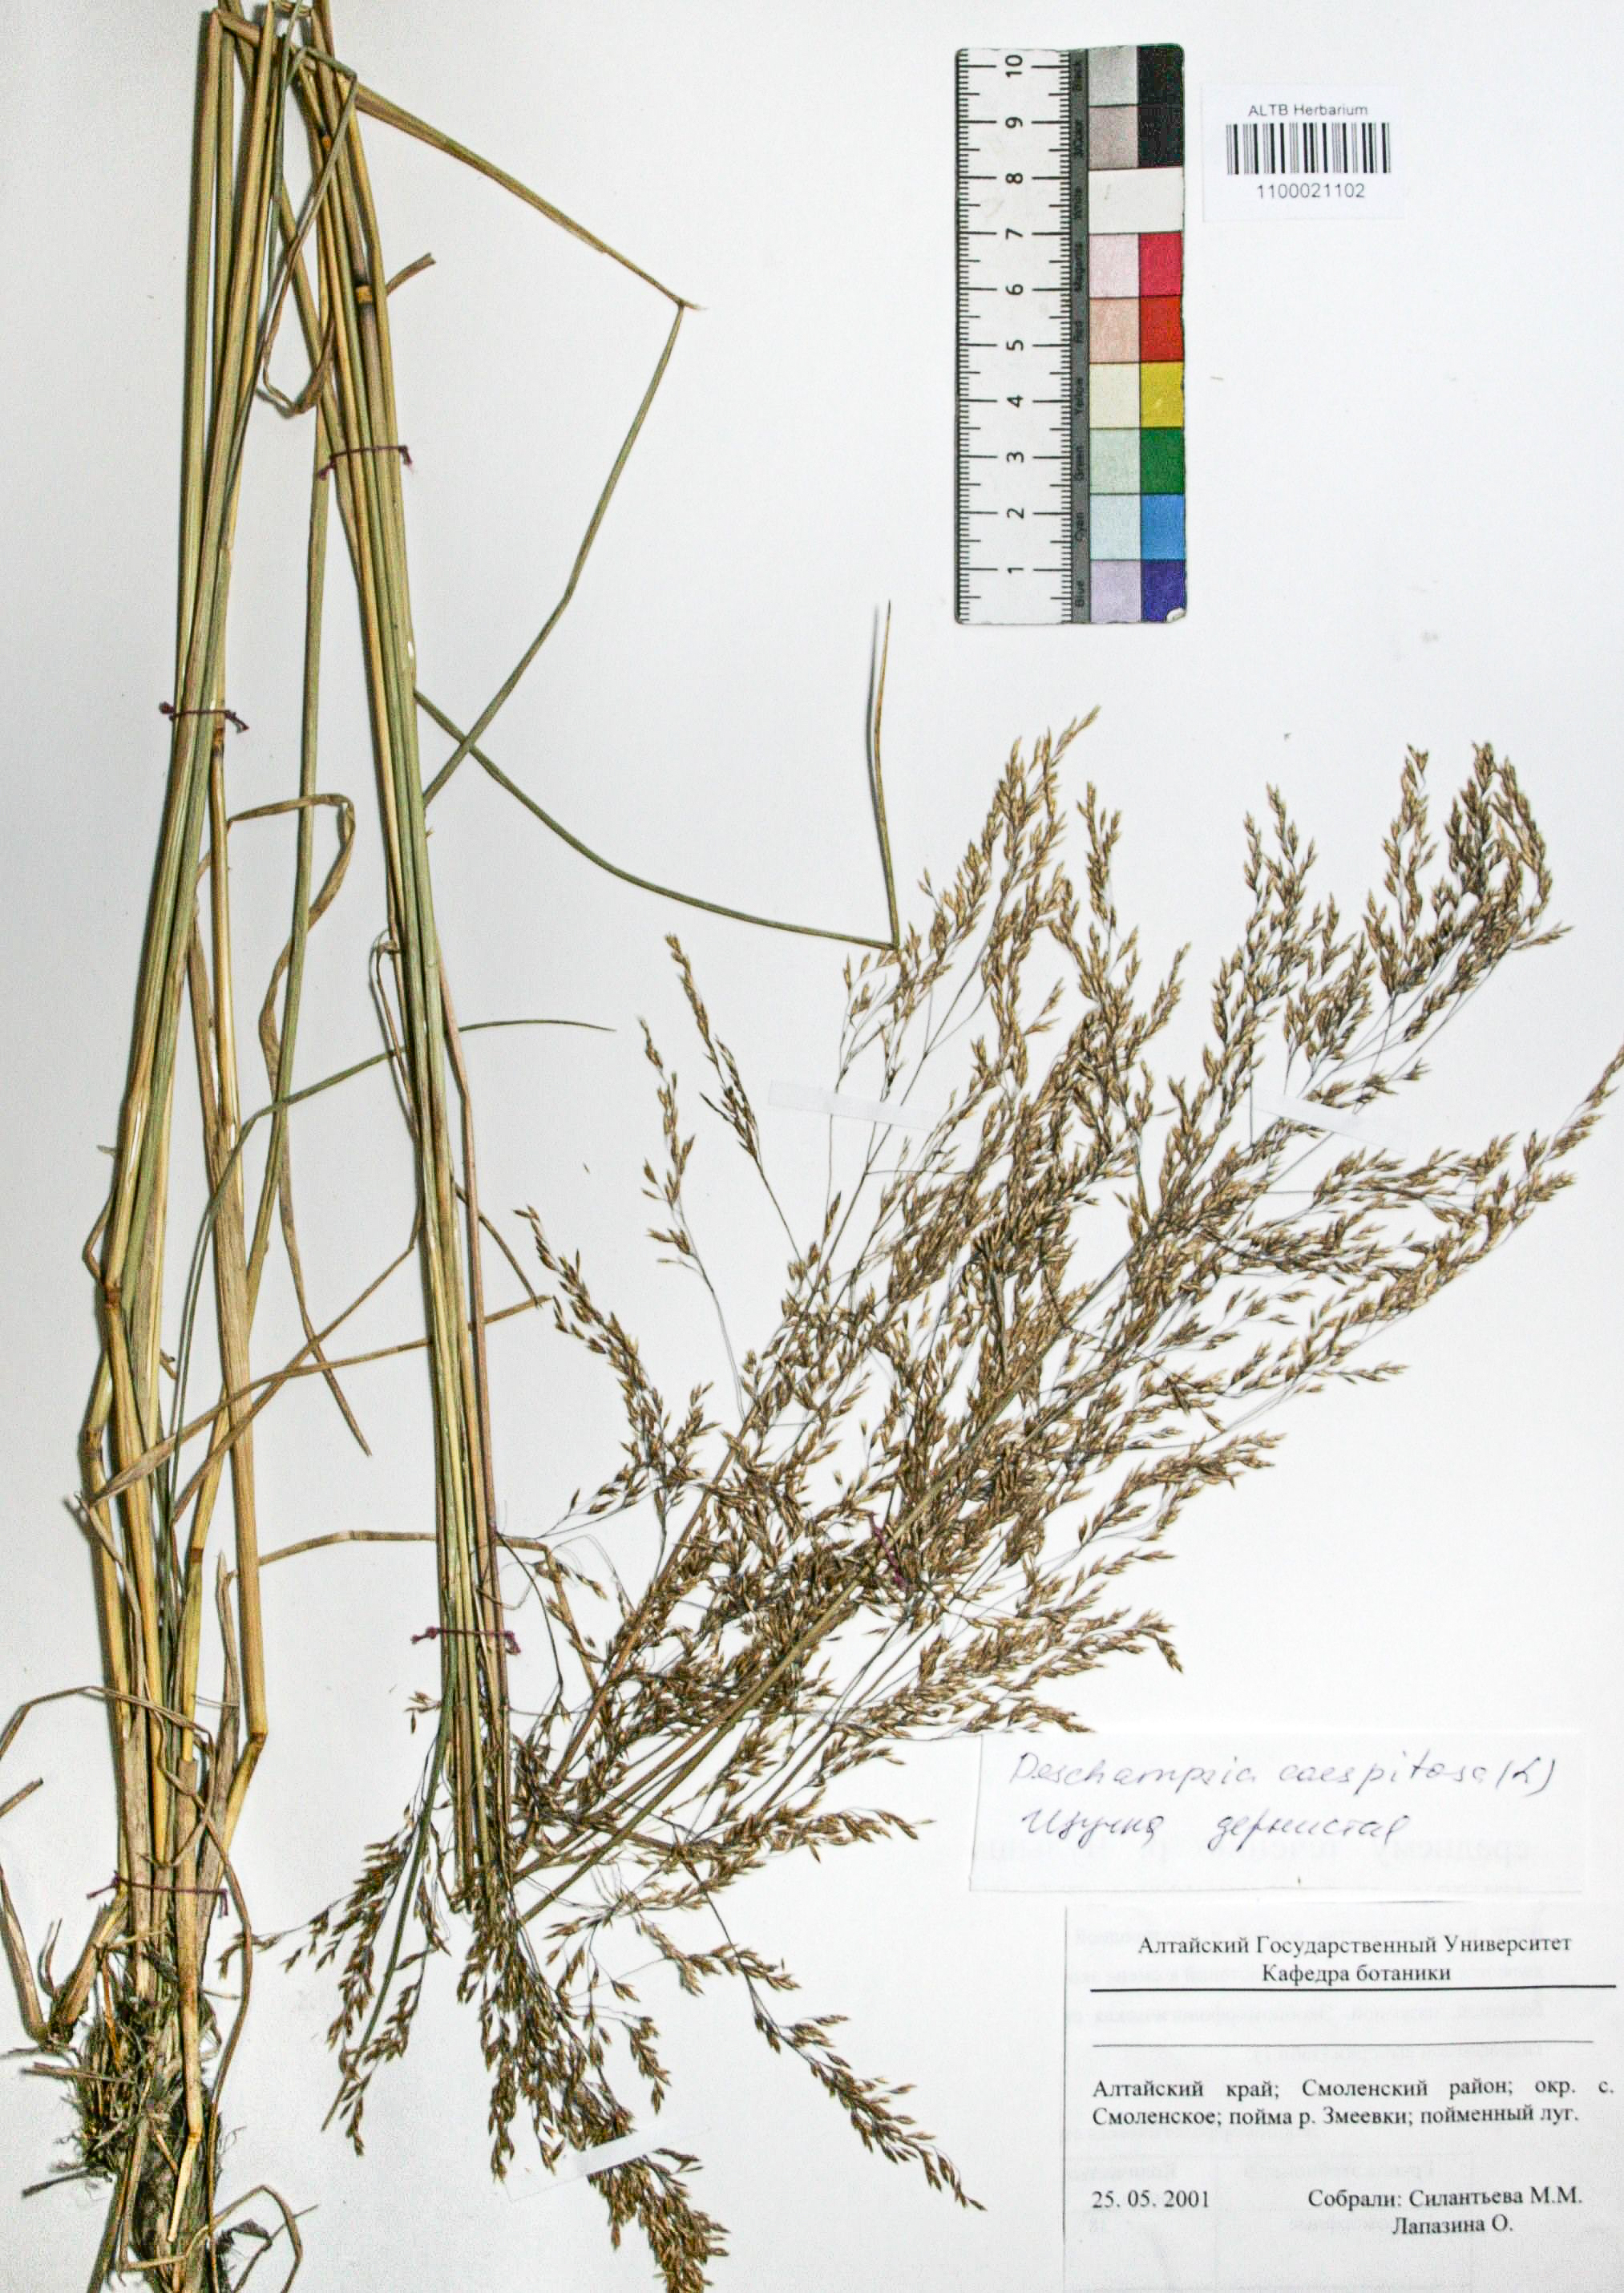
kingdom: Plantae
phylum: Tracheophyta
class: Liliopsida
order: Poales
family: Poaceae
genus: Deschampsia
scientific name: Deschampsia cespitosa
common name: Tufted hair-grass
